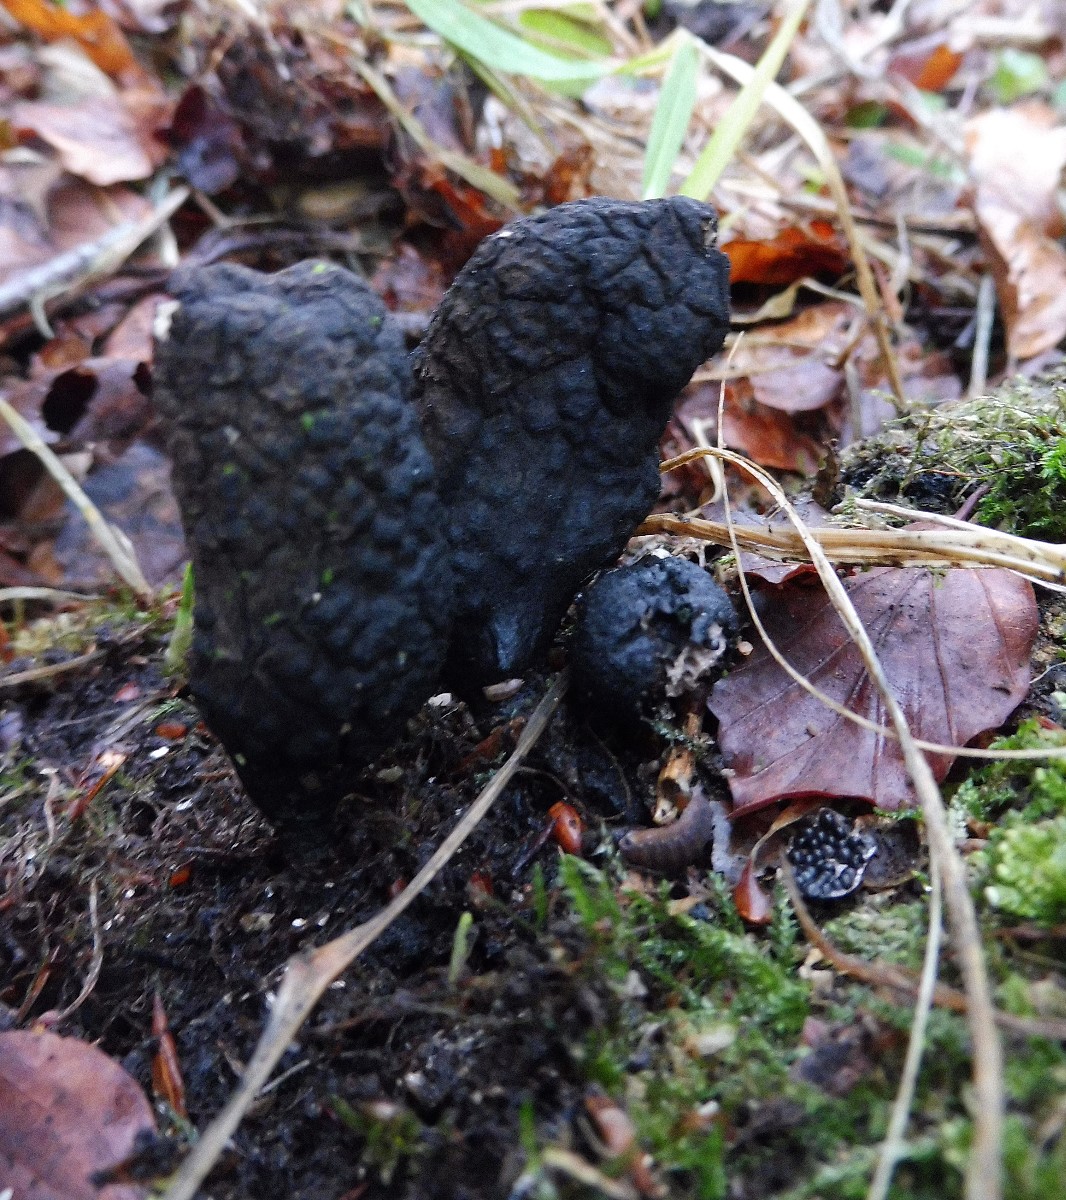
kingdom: Fungi
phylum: Ascomycota
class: Sordariomycetes
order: Xylariales
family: Xylariaceae
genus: Xylaria
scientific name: Xylaria polymorpha
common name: kølle-stødsvamp
